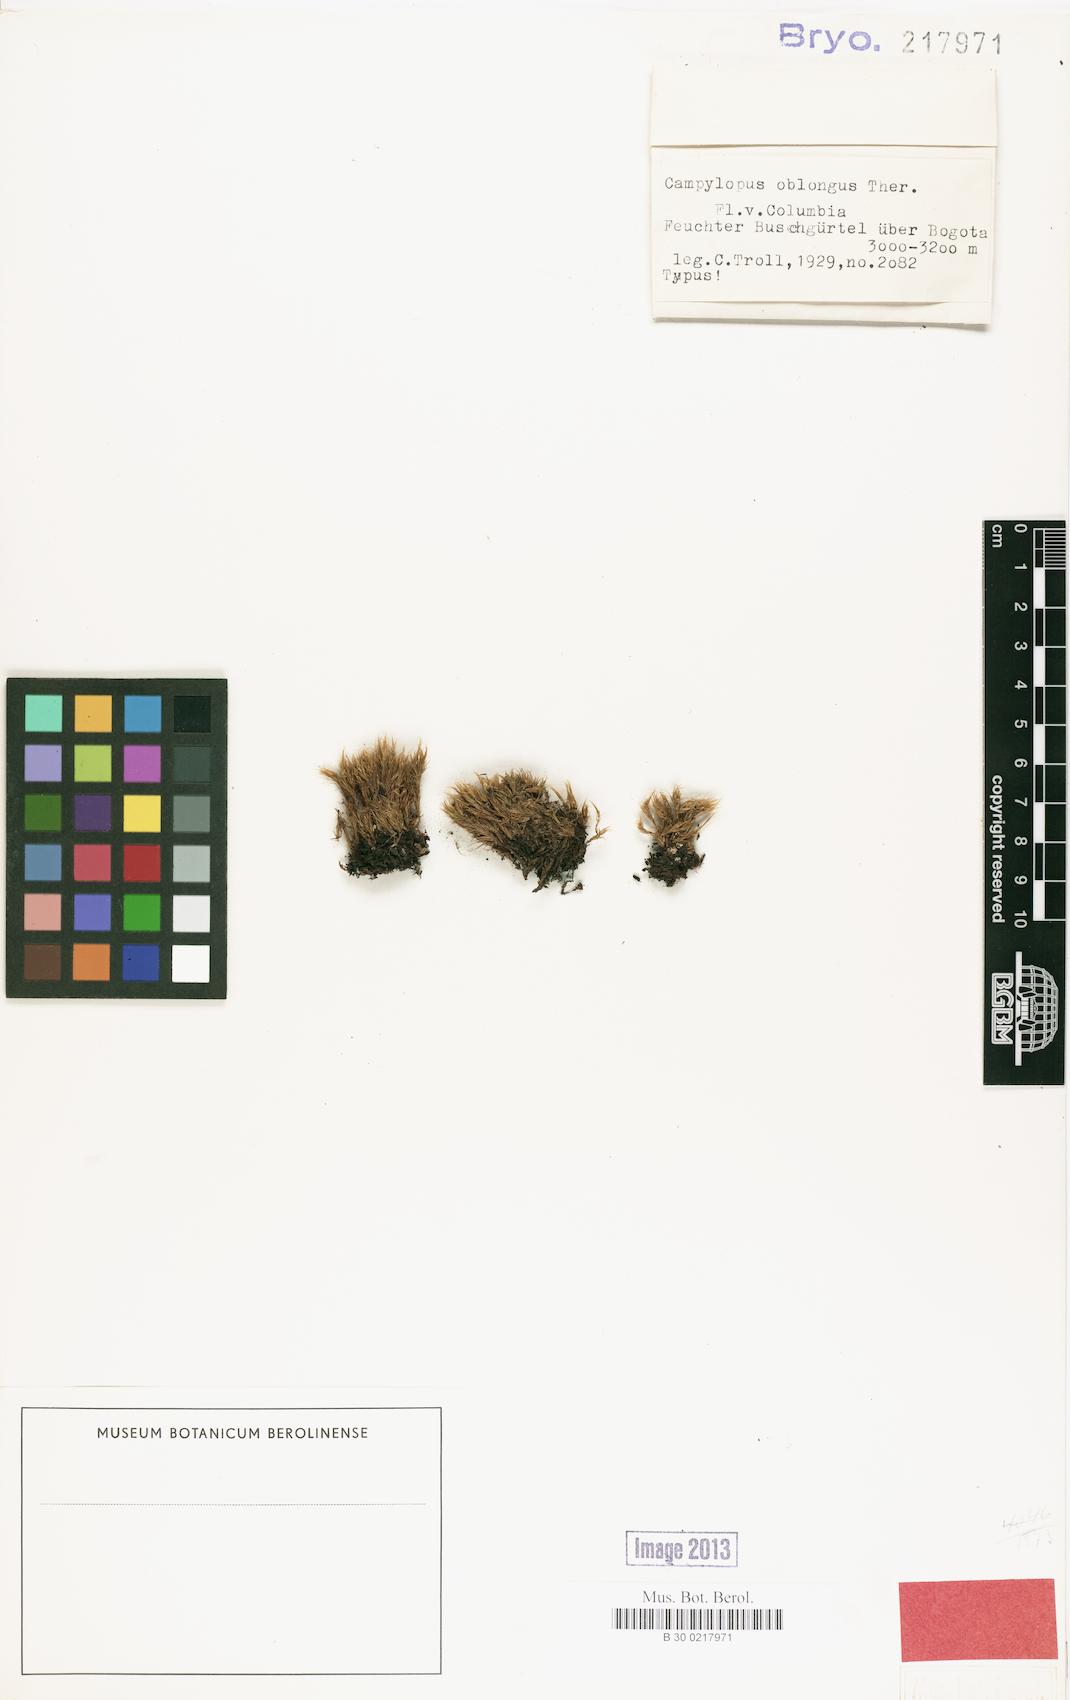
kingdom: Plantae
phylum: Bryophyta
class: Bryopsida
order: Dicranales
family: Leucobryaceae
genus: Campylopus
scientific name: Campylopus oblongus
